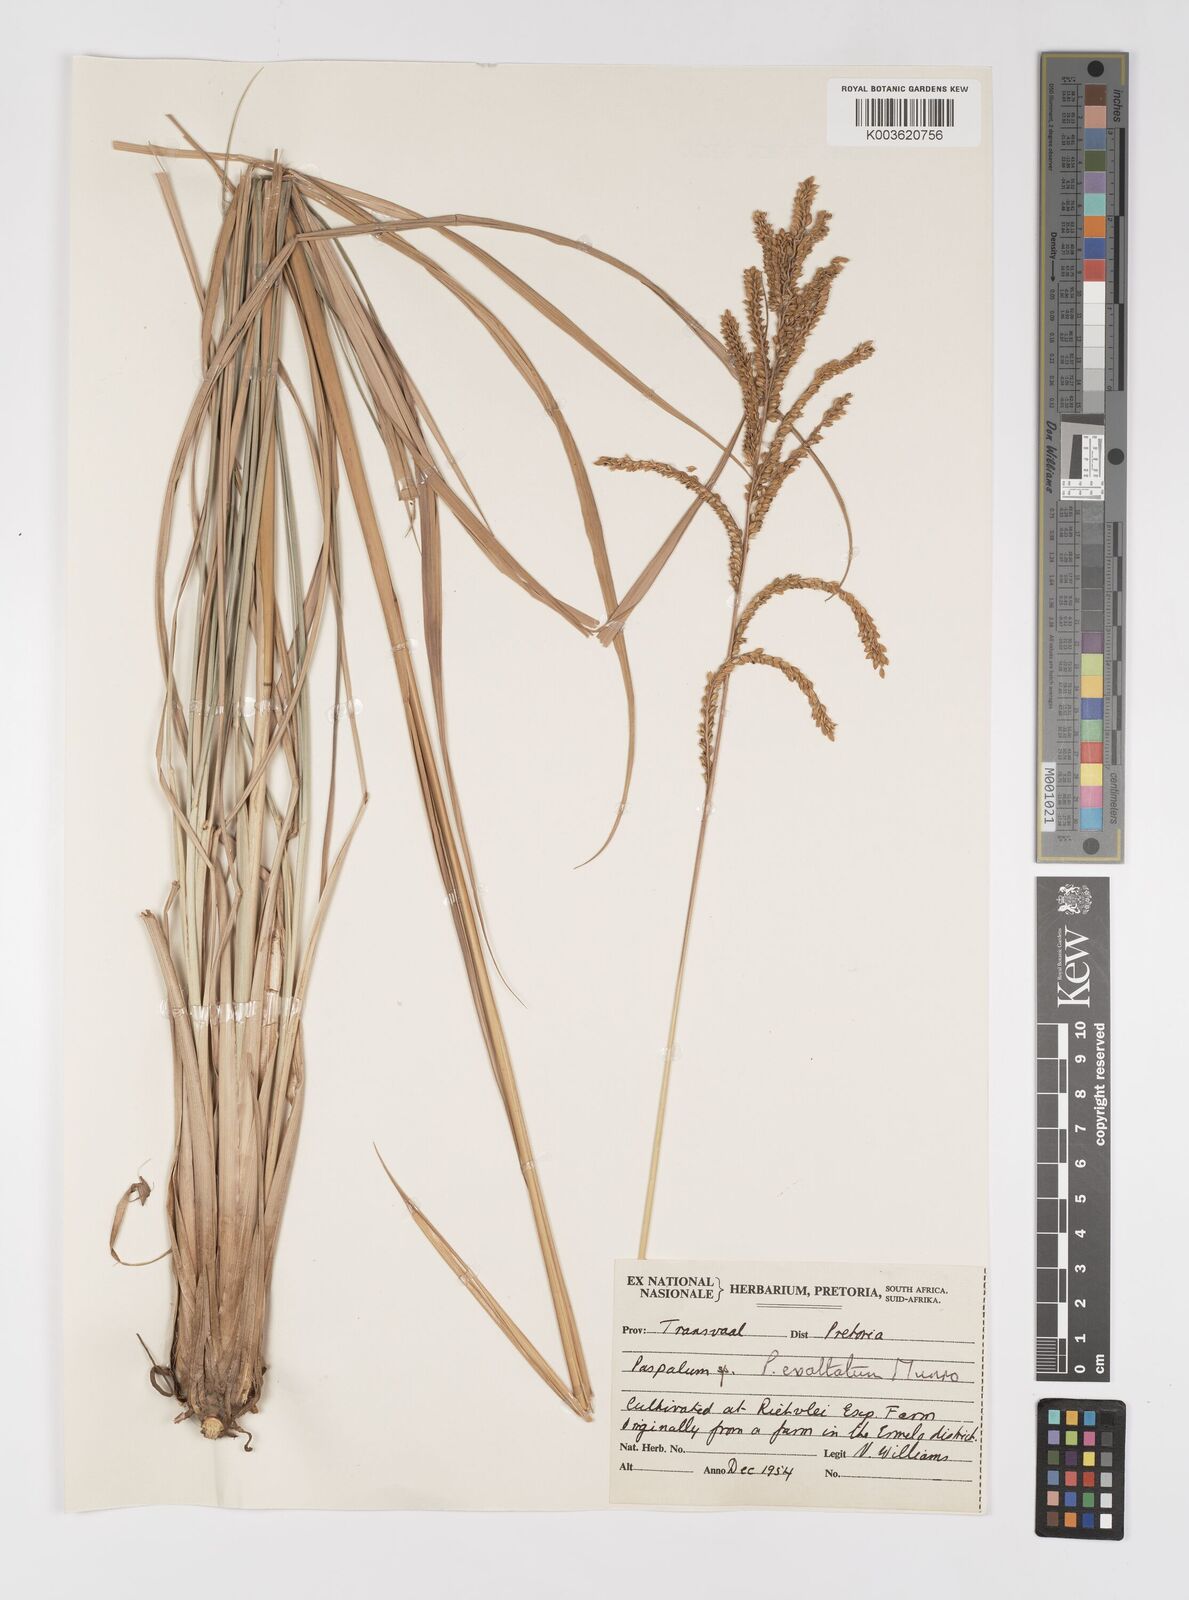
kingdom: Plantae
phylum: Tracheophyta
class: Liliopsida
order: Poales
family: Poaceae
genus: Paspalum
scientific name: Paspalum exaltatum
